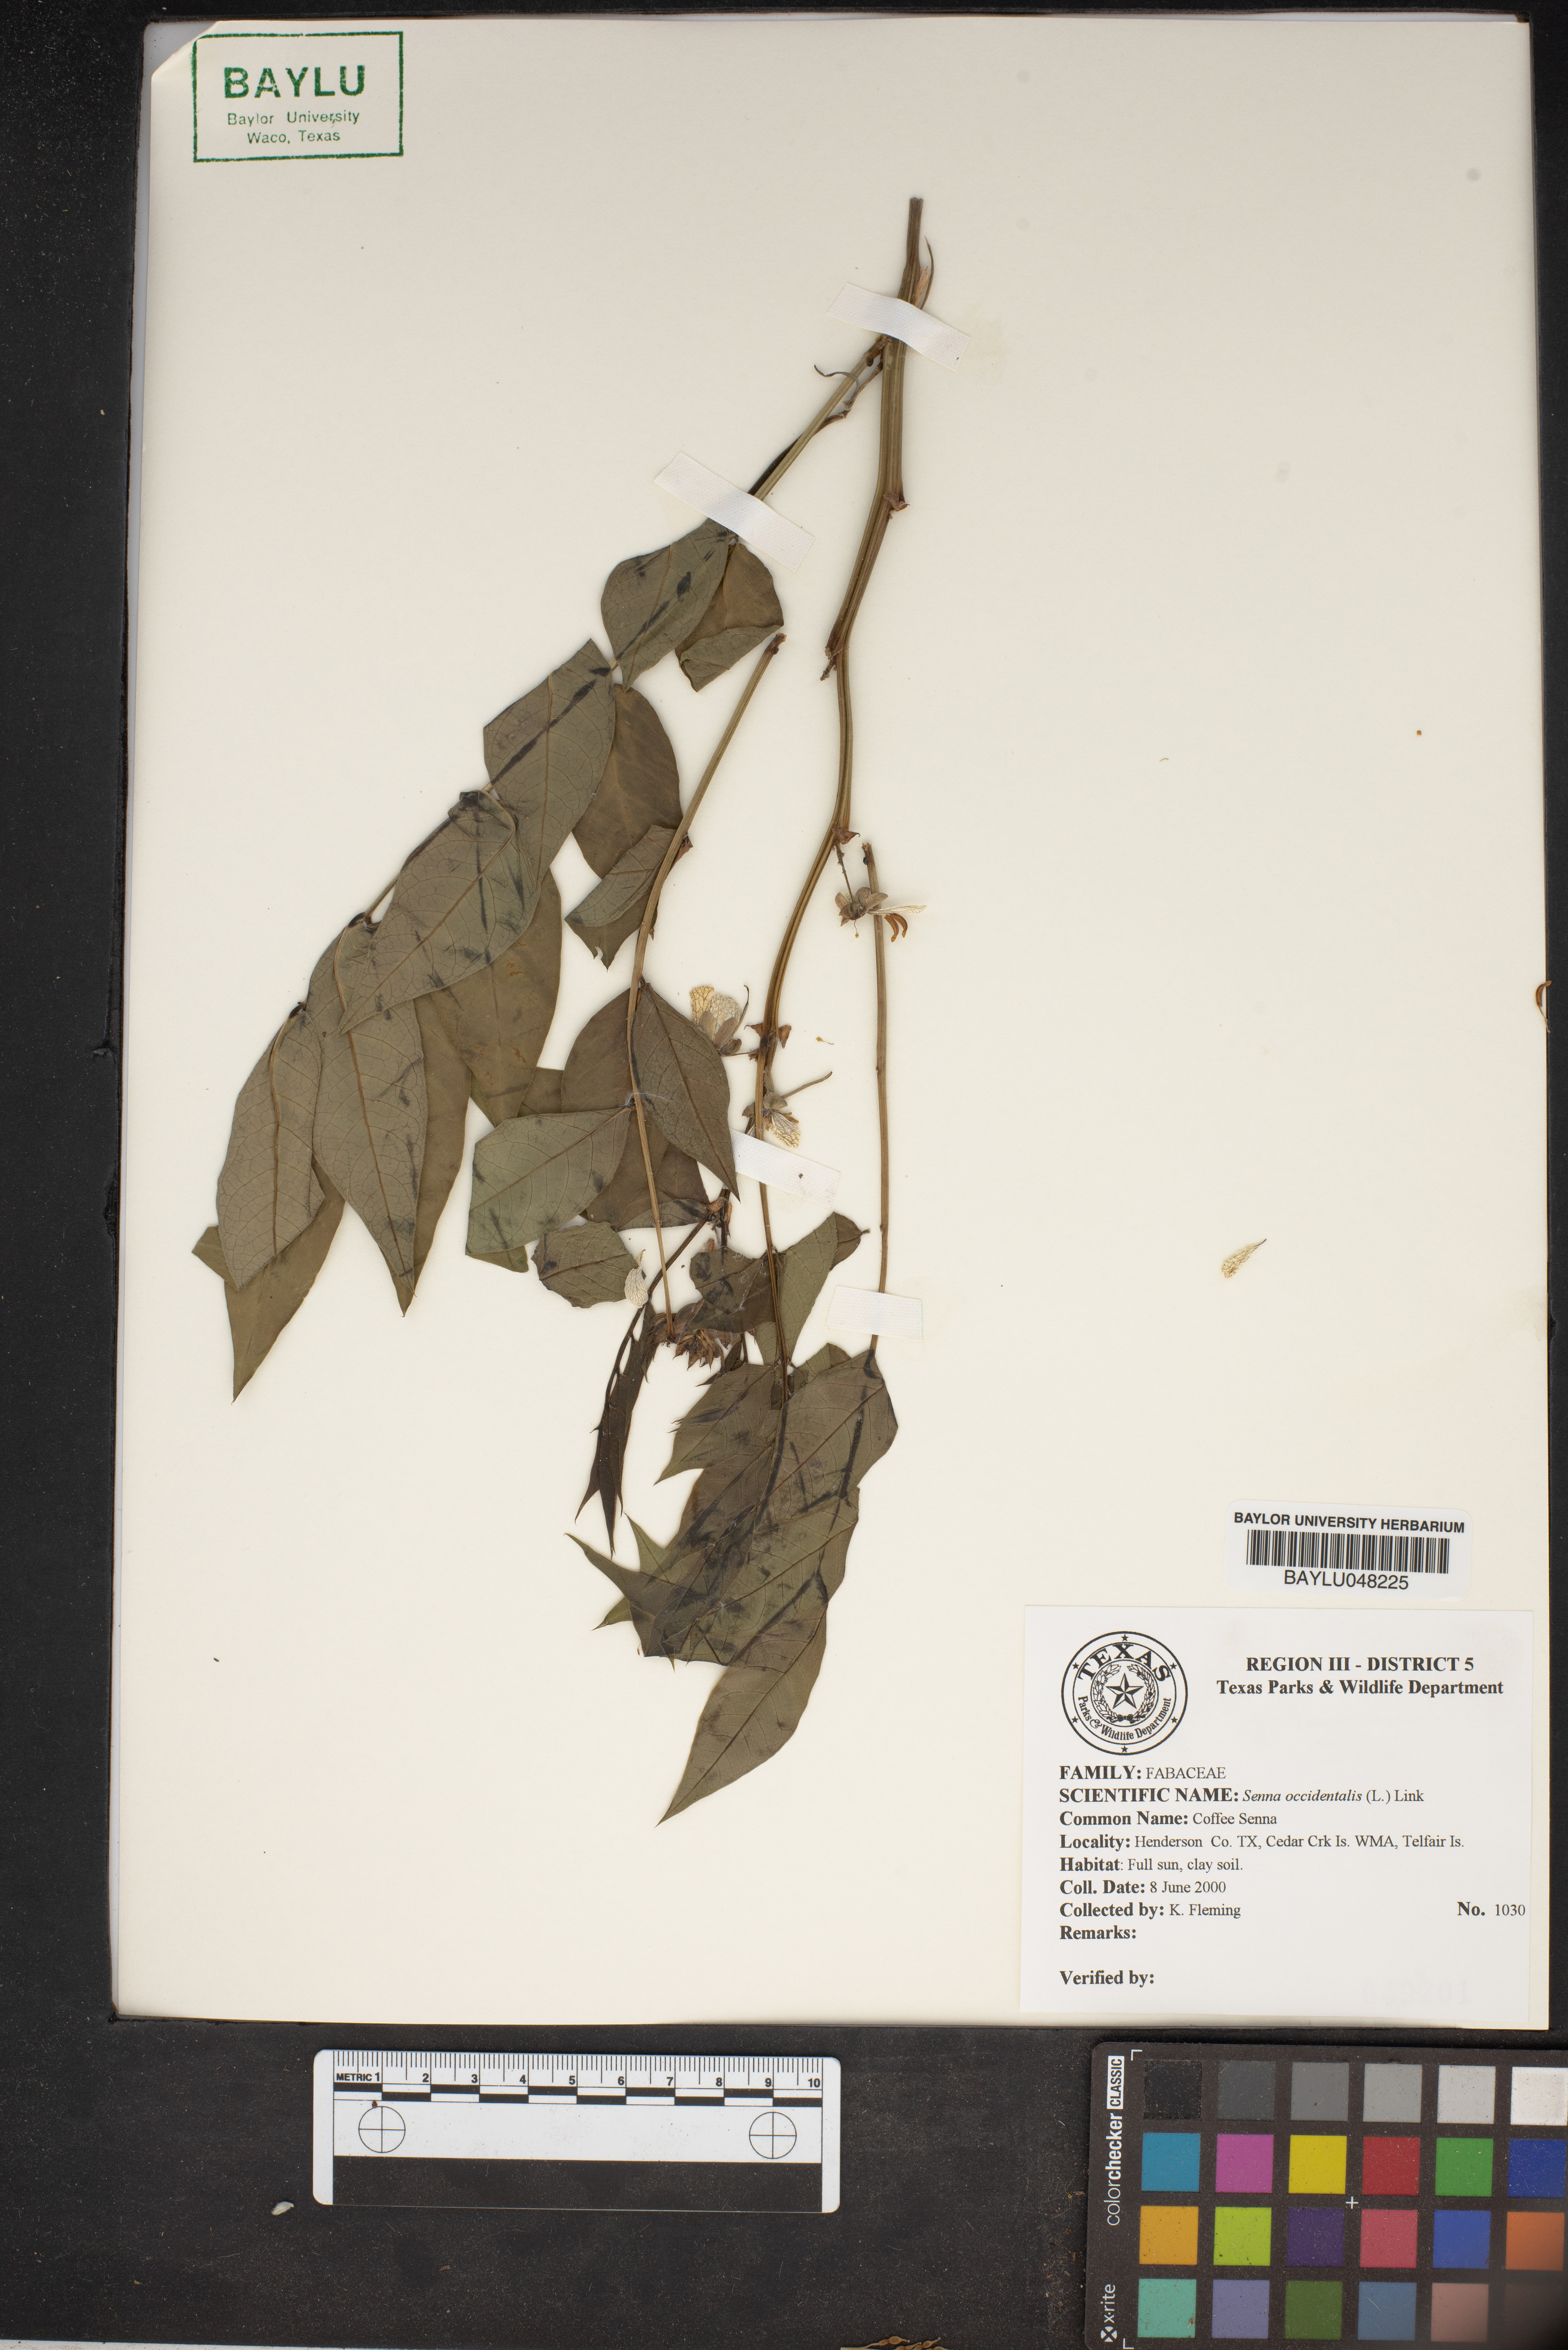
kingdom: Plantae
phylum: Tracheophyta
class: Magnoliopsida
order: Fabales
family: Fabaceae
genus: Senna
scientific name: Senna occidentalis
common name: Septicweed
